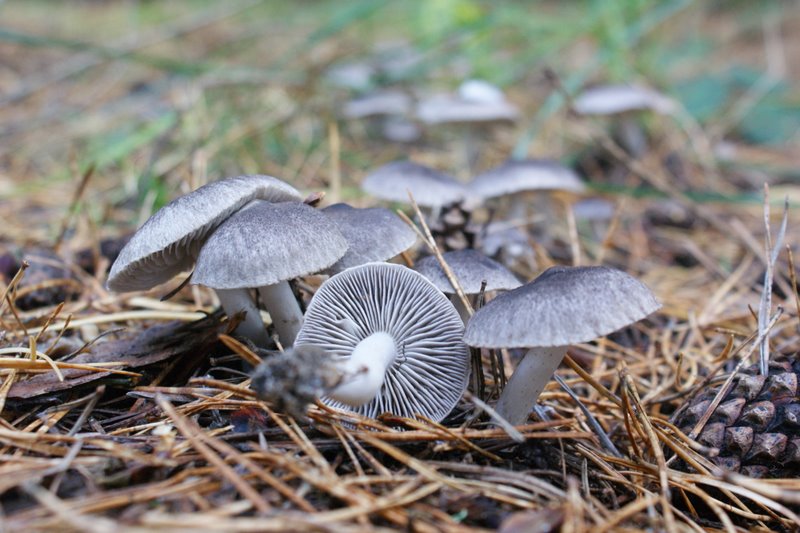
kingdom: Fungi
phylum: Basidiomycota
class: Agaricomycetes
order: Agaricales
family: Tricholomataceae
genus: Tricholoma
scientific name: Tricholoma terreum
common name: jordfarvet ridderhat
